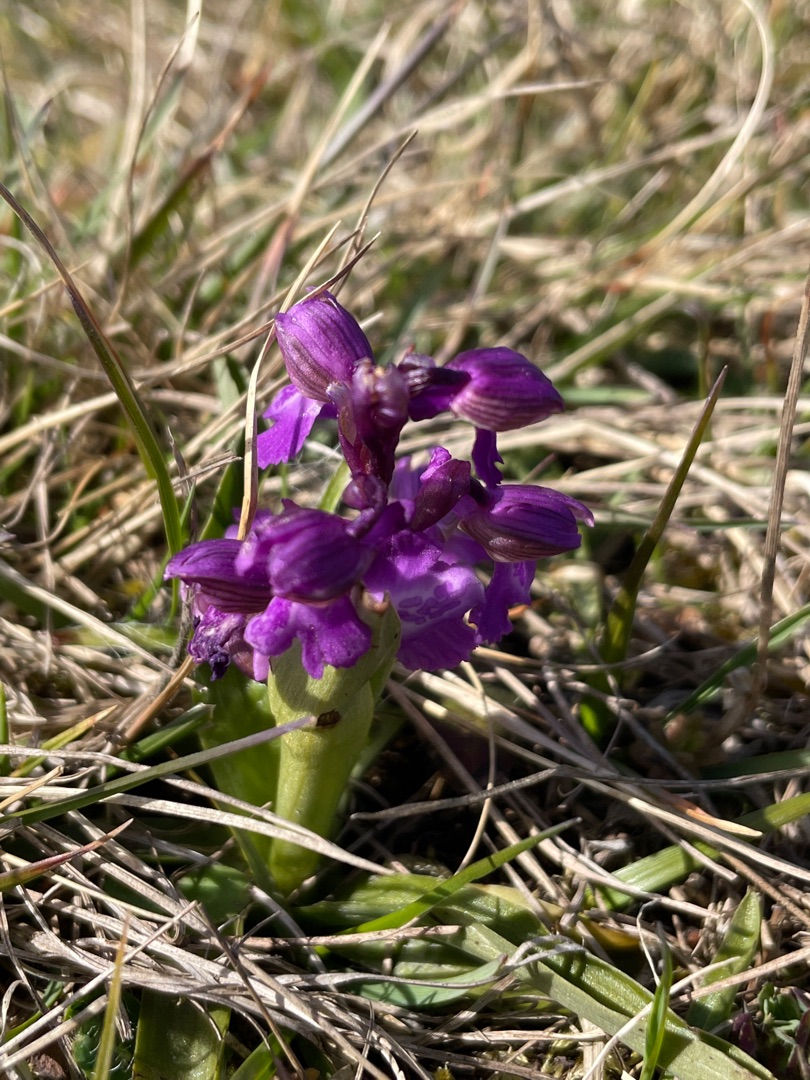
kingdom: Plantae
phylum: Tracheophyta
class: Liliopsida
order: Asparagales
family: Orchidaceae
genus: Anacamptis
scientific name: Anacamptis morio
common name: Salepgøgeurt
